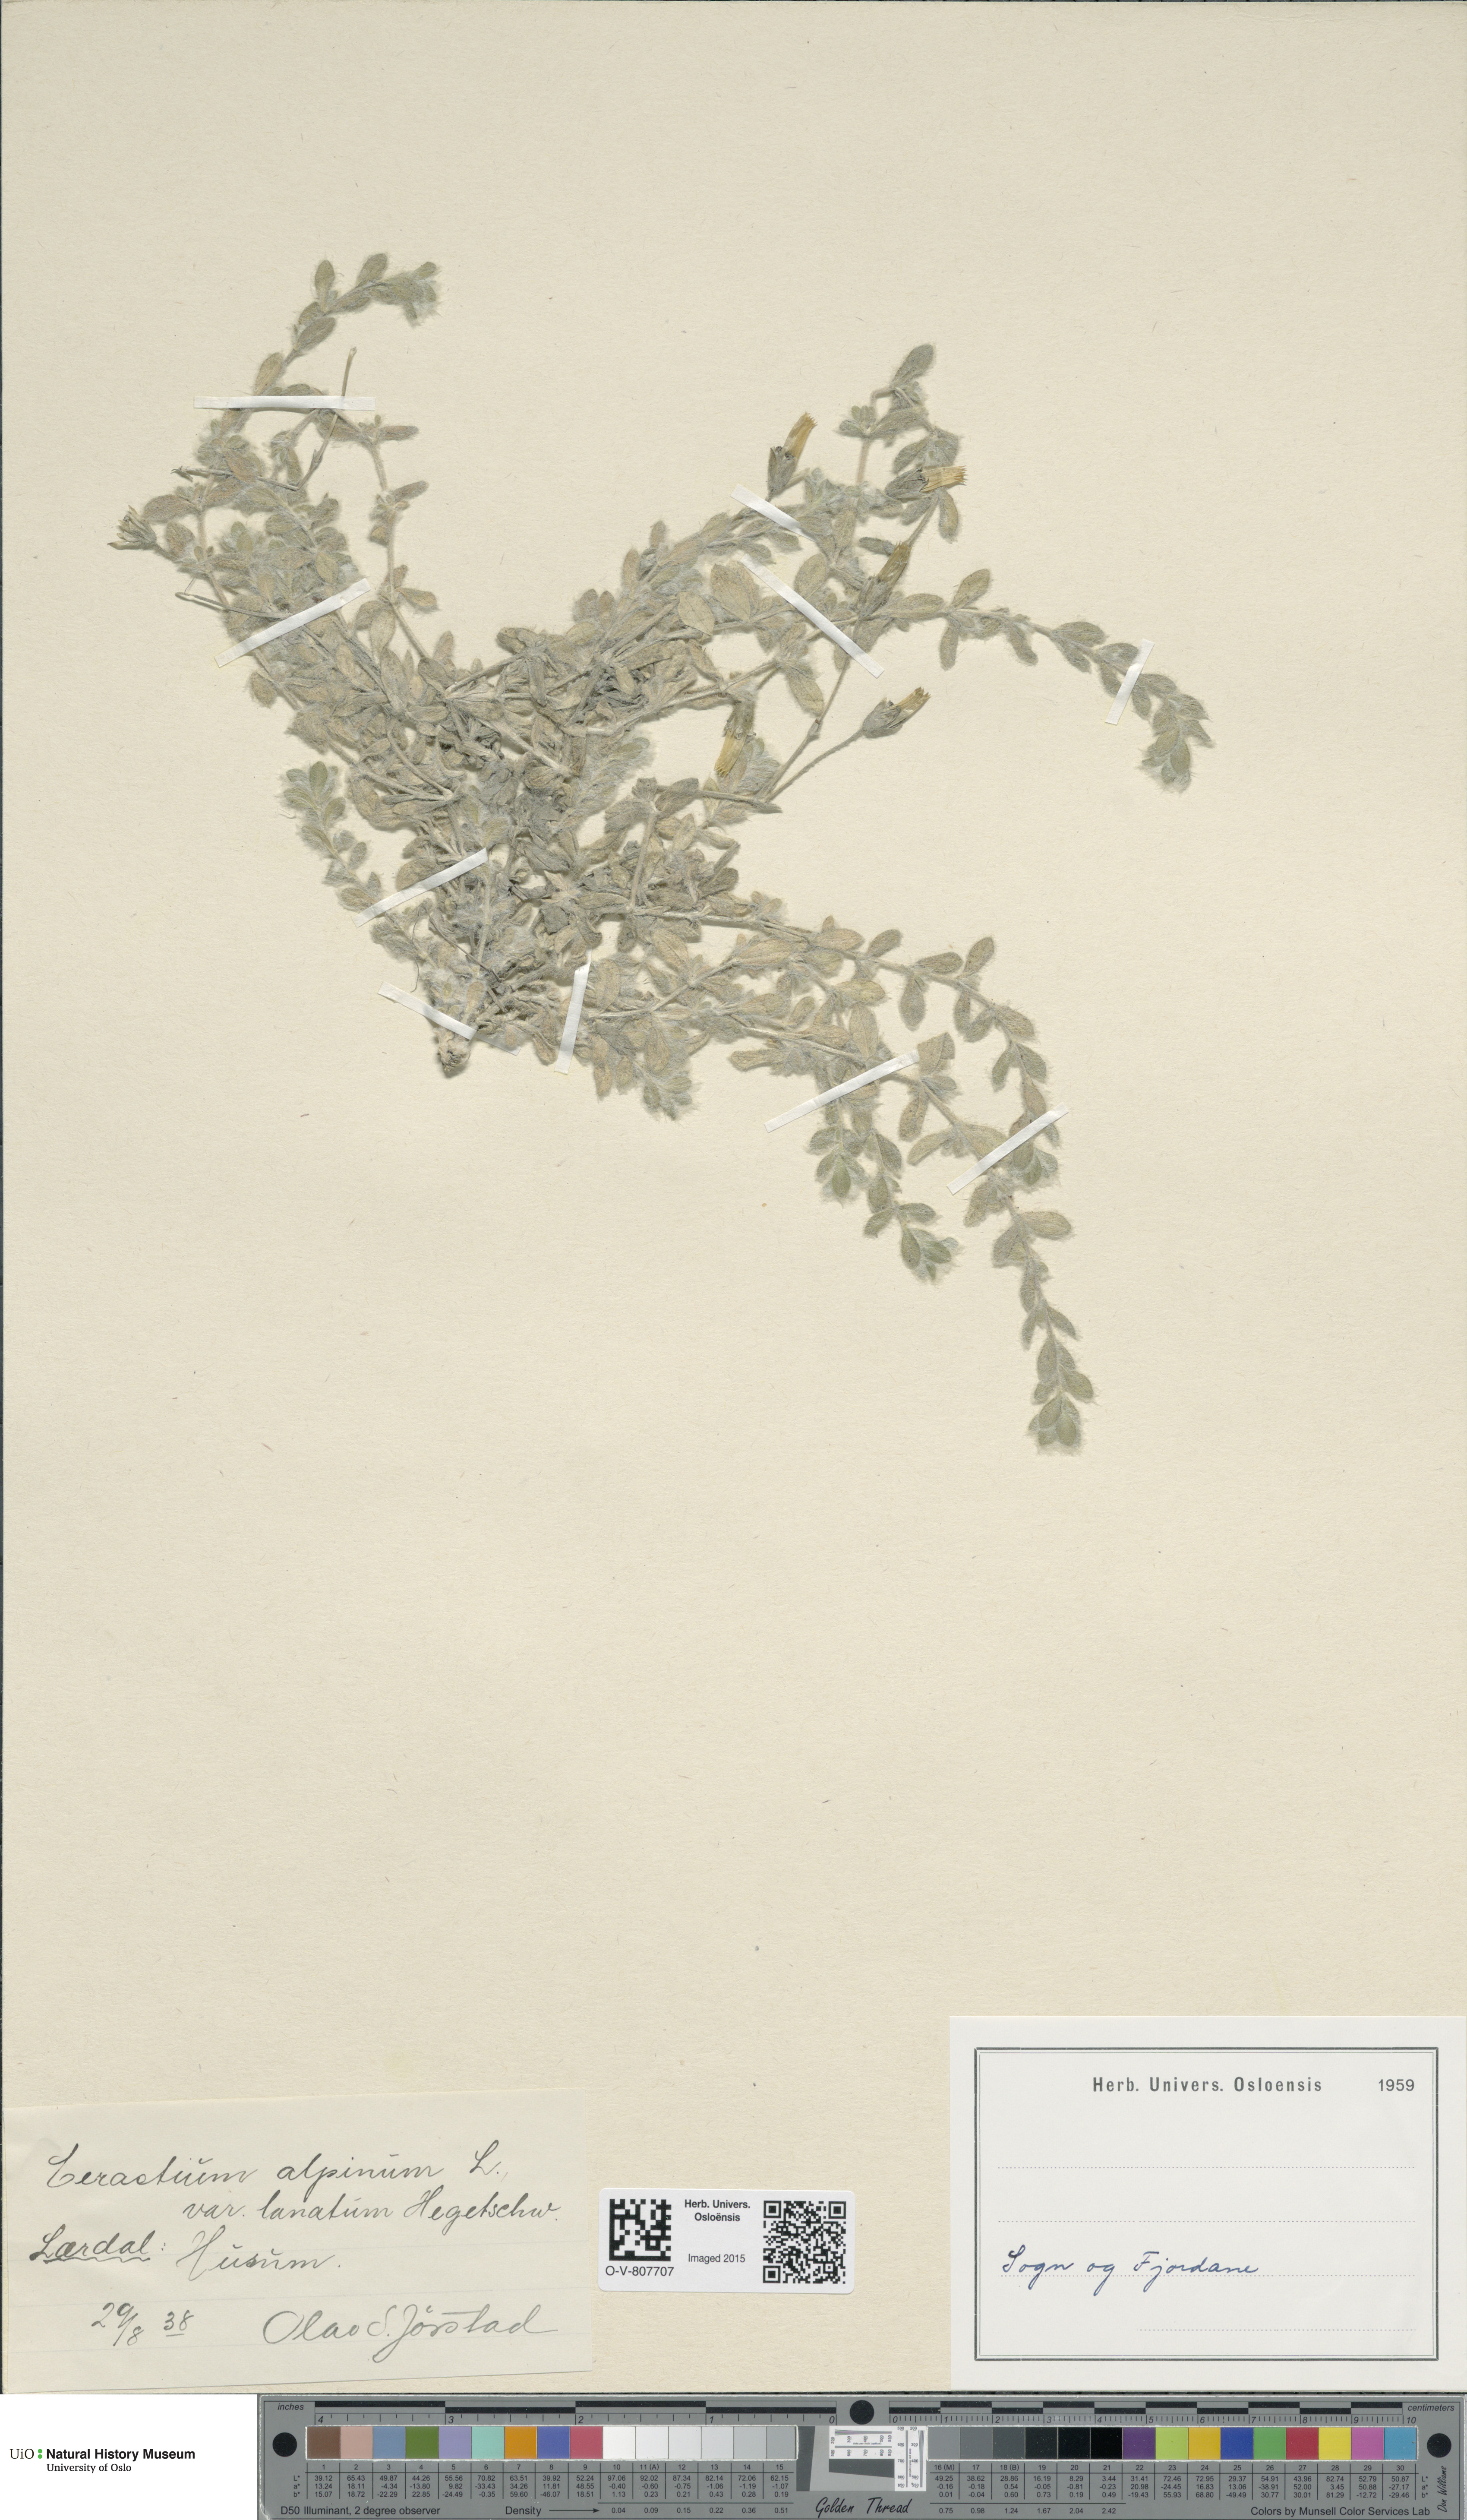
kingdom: Plantae
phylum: Tracheophyta
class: Magnoliopsida
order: Caryophyllales
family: Caryophyllaceae
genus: Cerastium
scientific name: Cerastium alpinum
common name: Alpine mouse-ear
